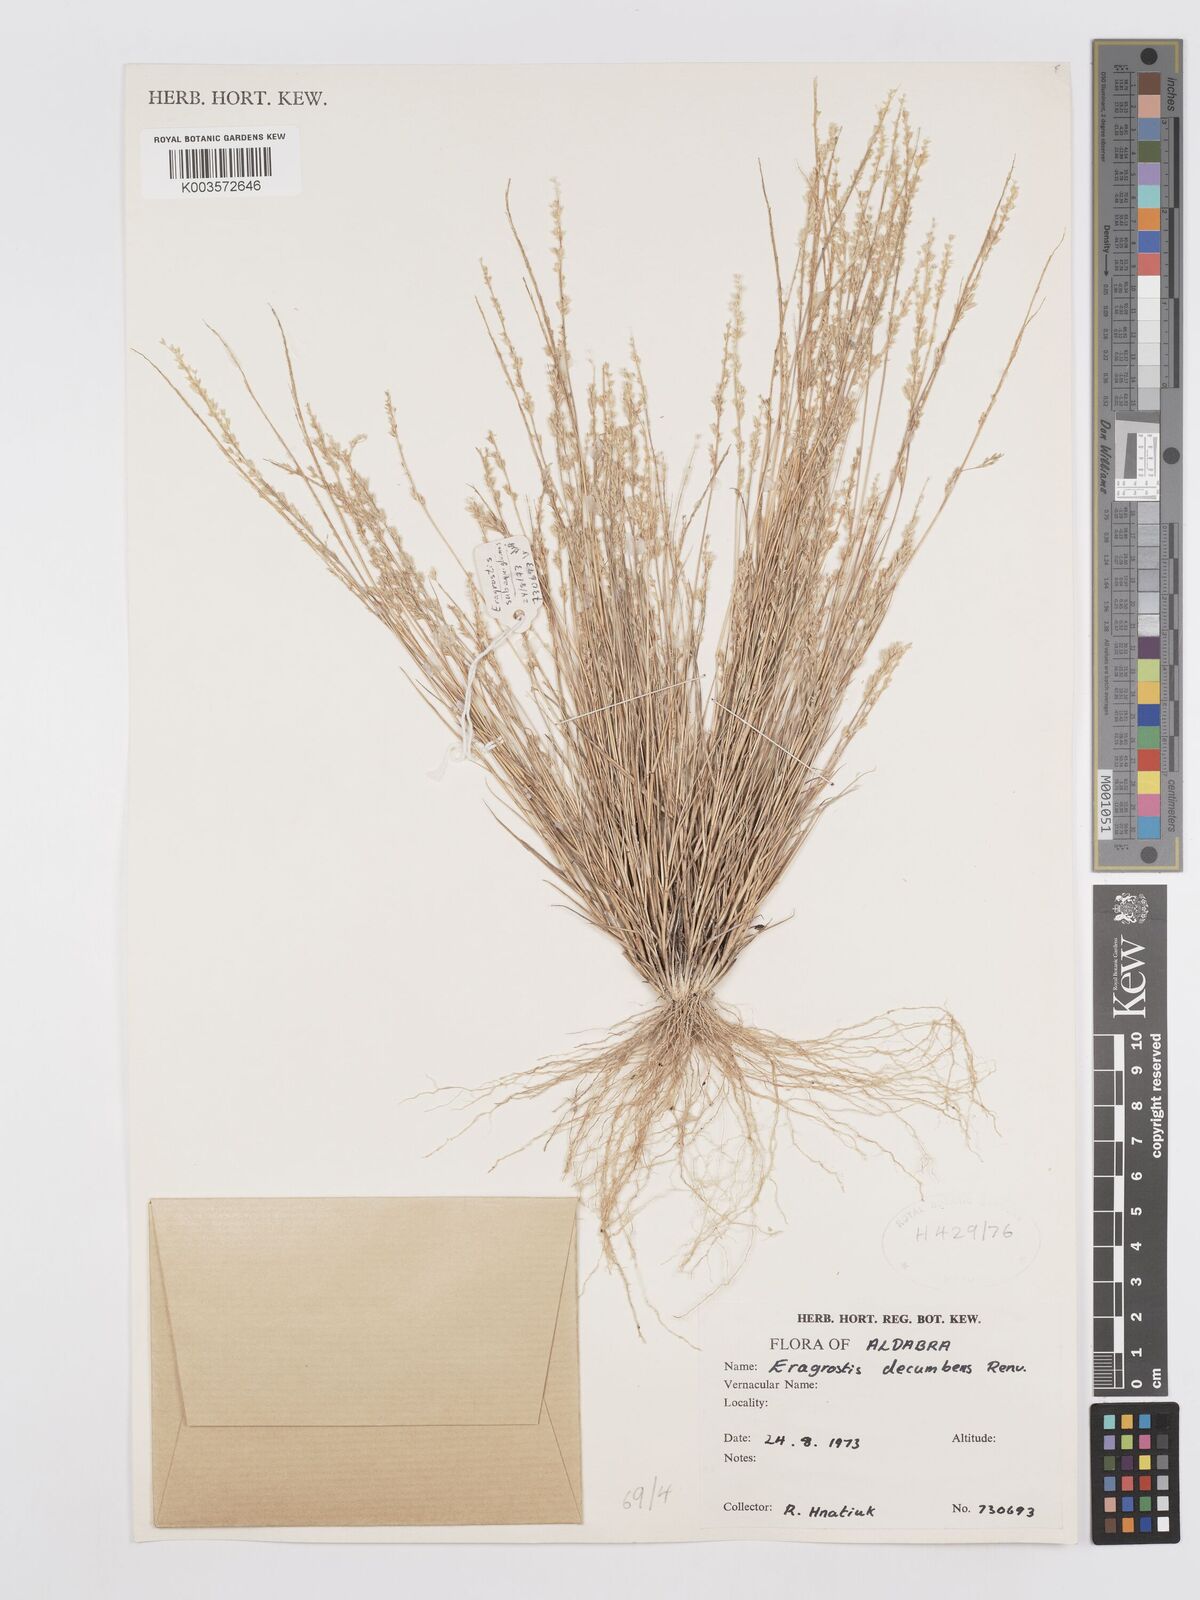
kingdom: Plantae
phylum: Tracheophyta
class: Liliopsida
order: Poales
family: Poaceae
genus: Eragrostis
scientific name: Eragrostis subaequiglumis
